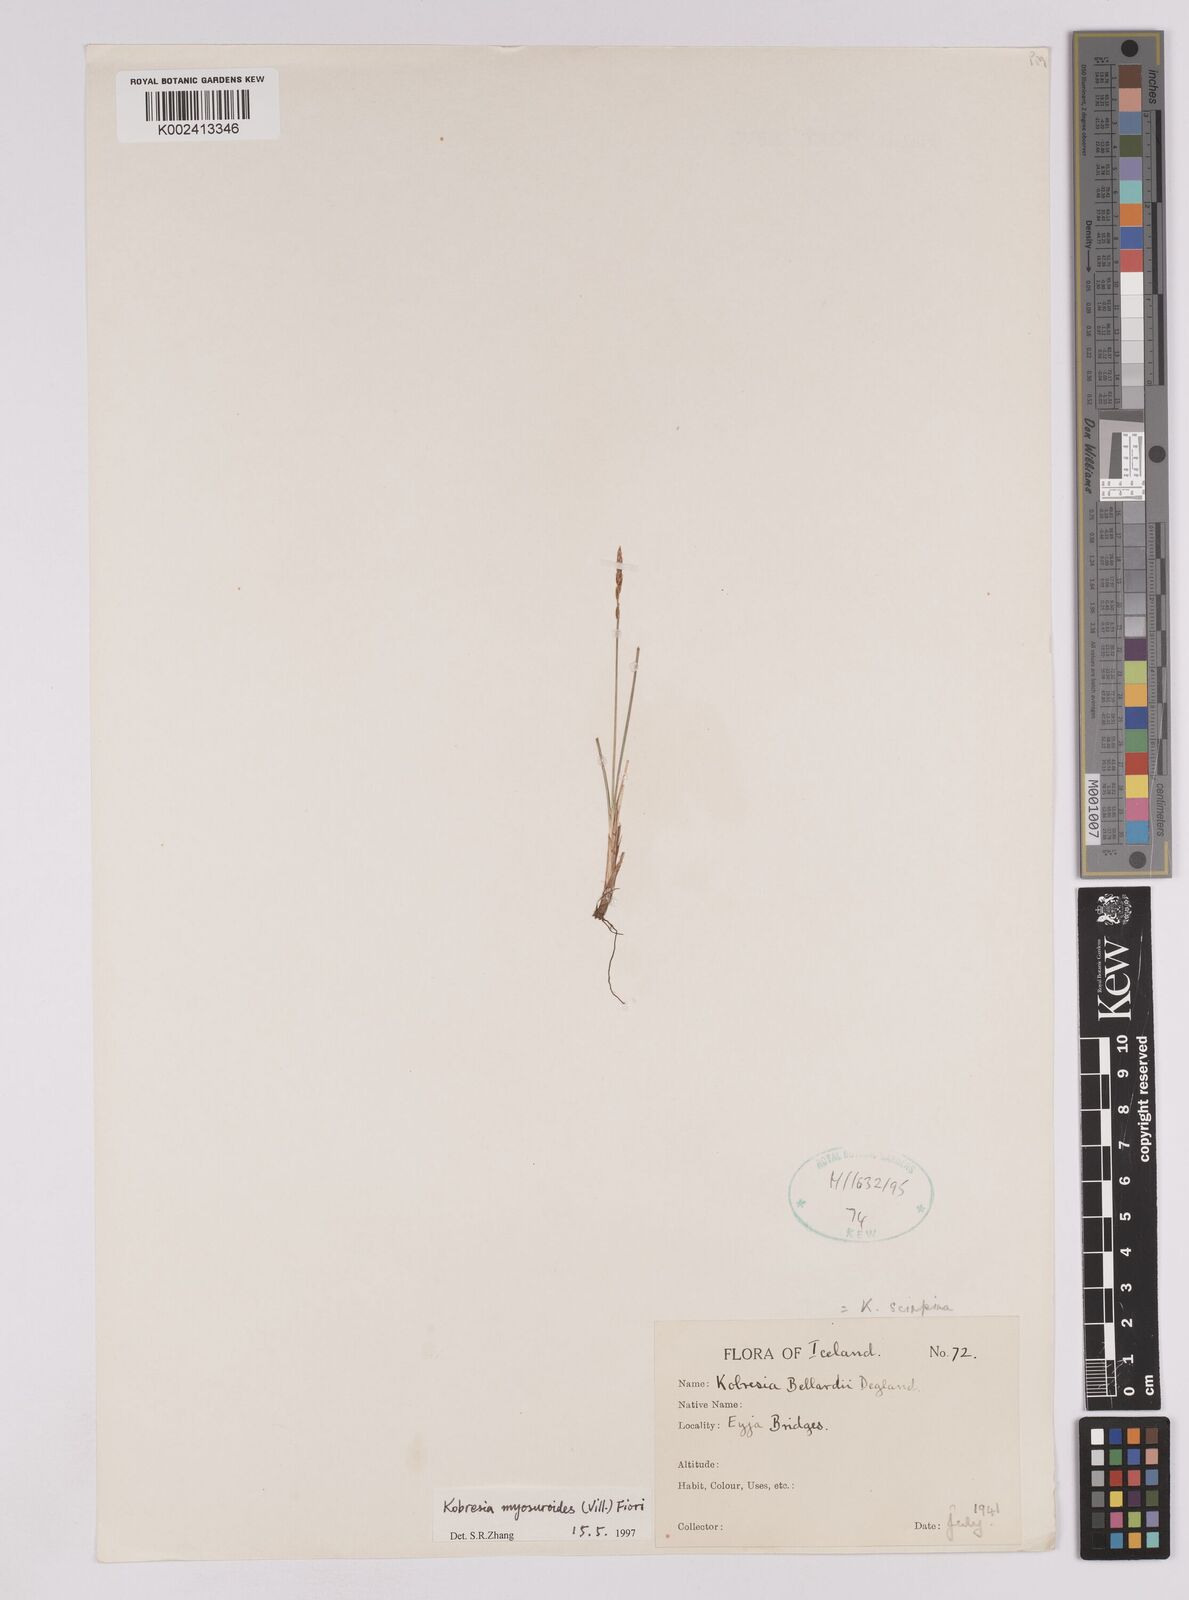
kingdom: Plantae
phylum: Tracheophyta
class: Liliopsida
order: Poales
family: Cyperaceae
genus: Carex
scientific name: Carex myosuroides
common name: Bellard's bog sedge
